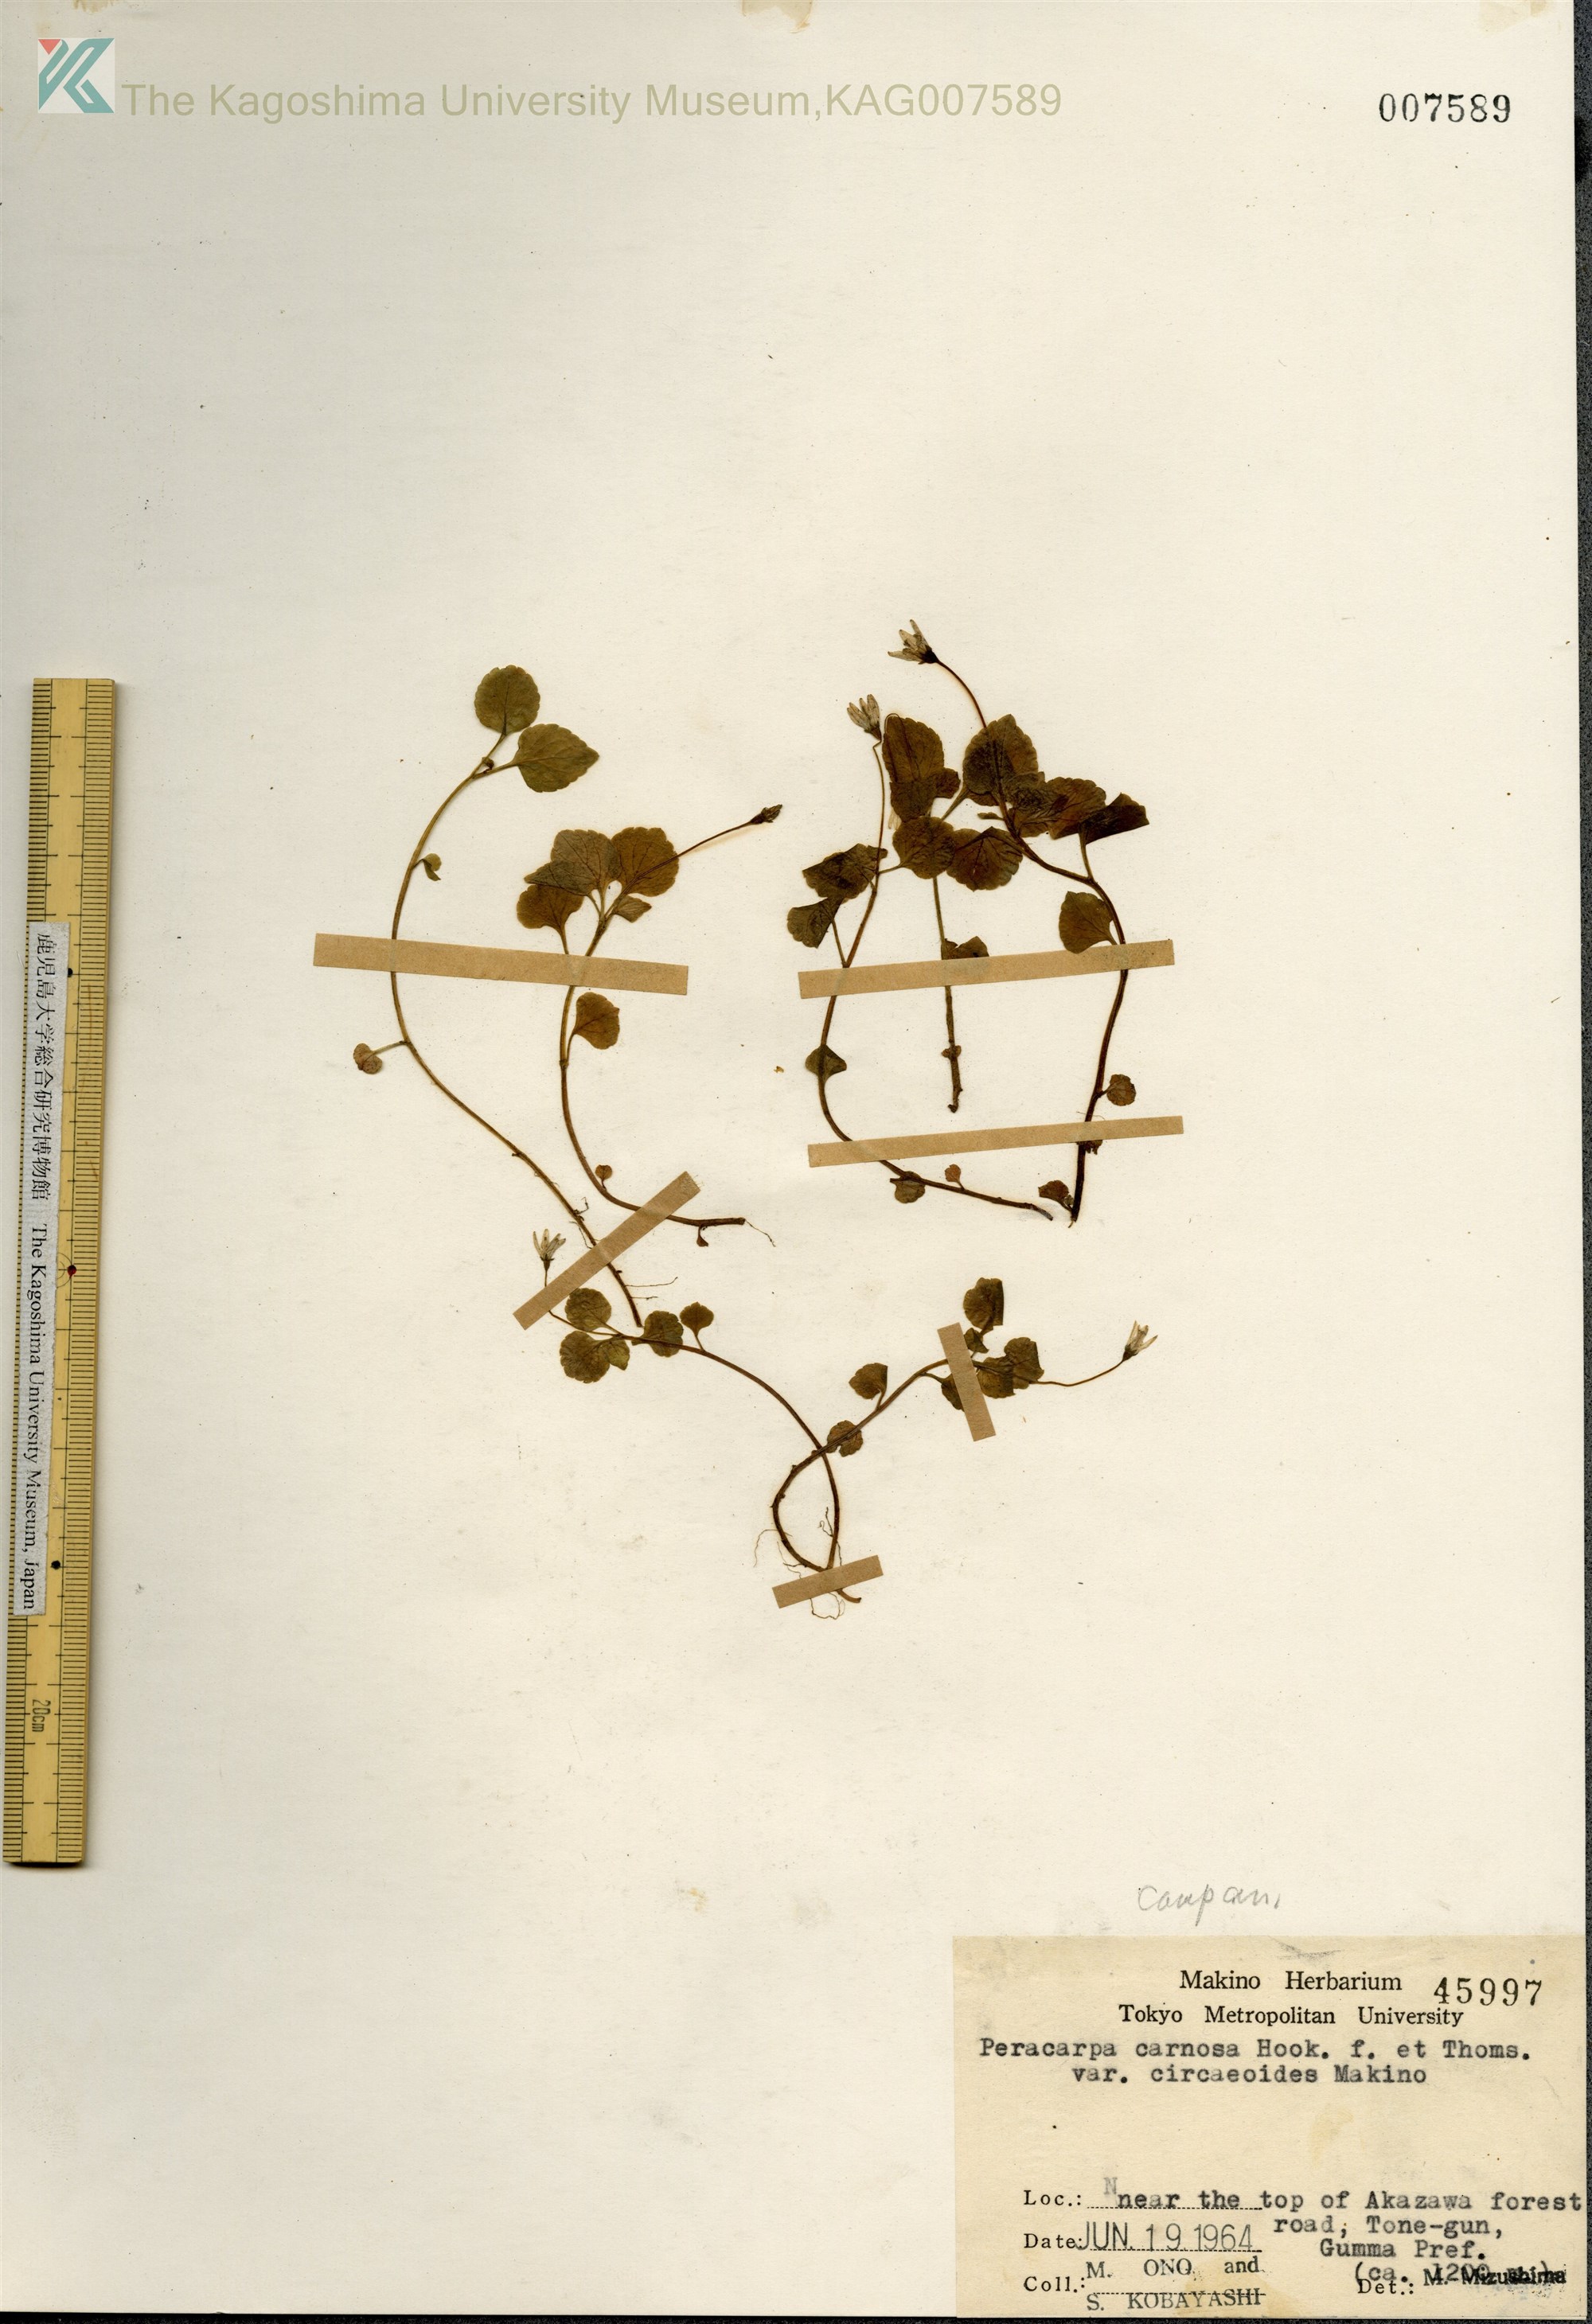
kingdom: Plantae
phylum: Tracheophyta
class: Magnoliopsida
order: Asterales
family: Campanulaceae
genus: Peracarpa
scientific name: Peracarpa carnosa
